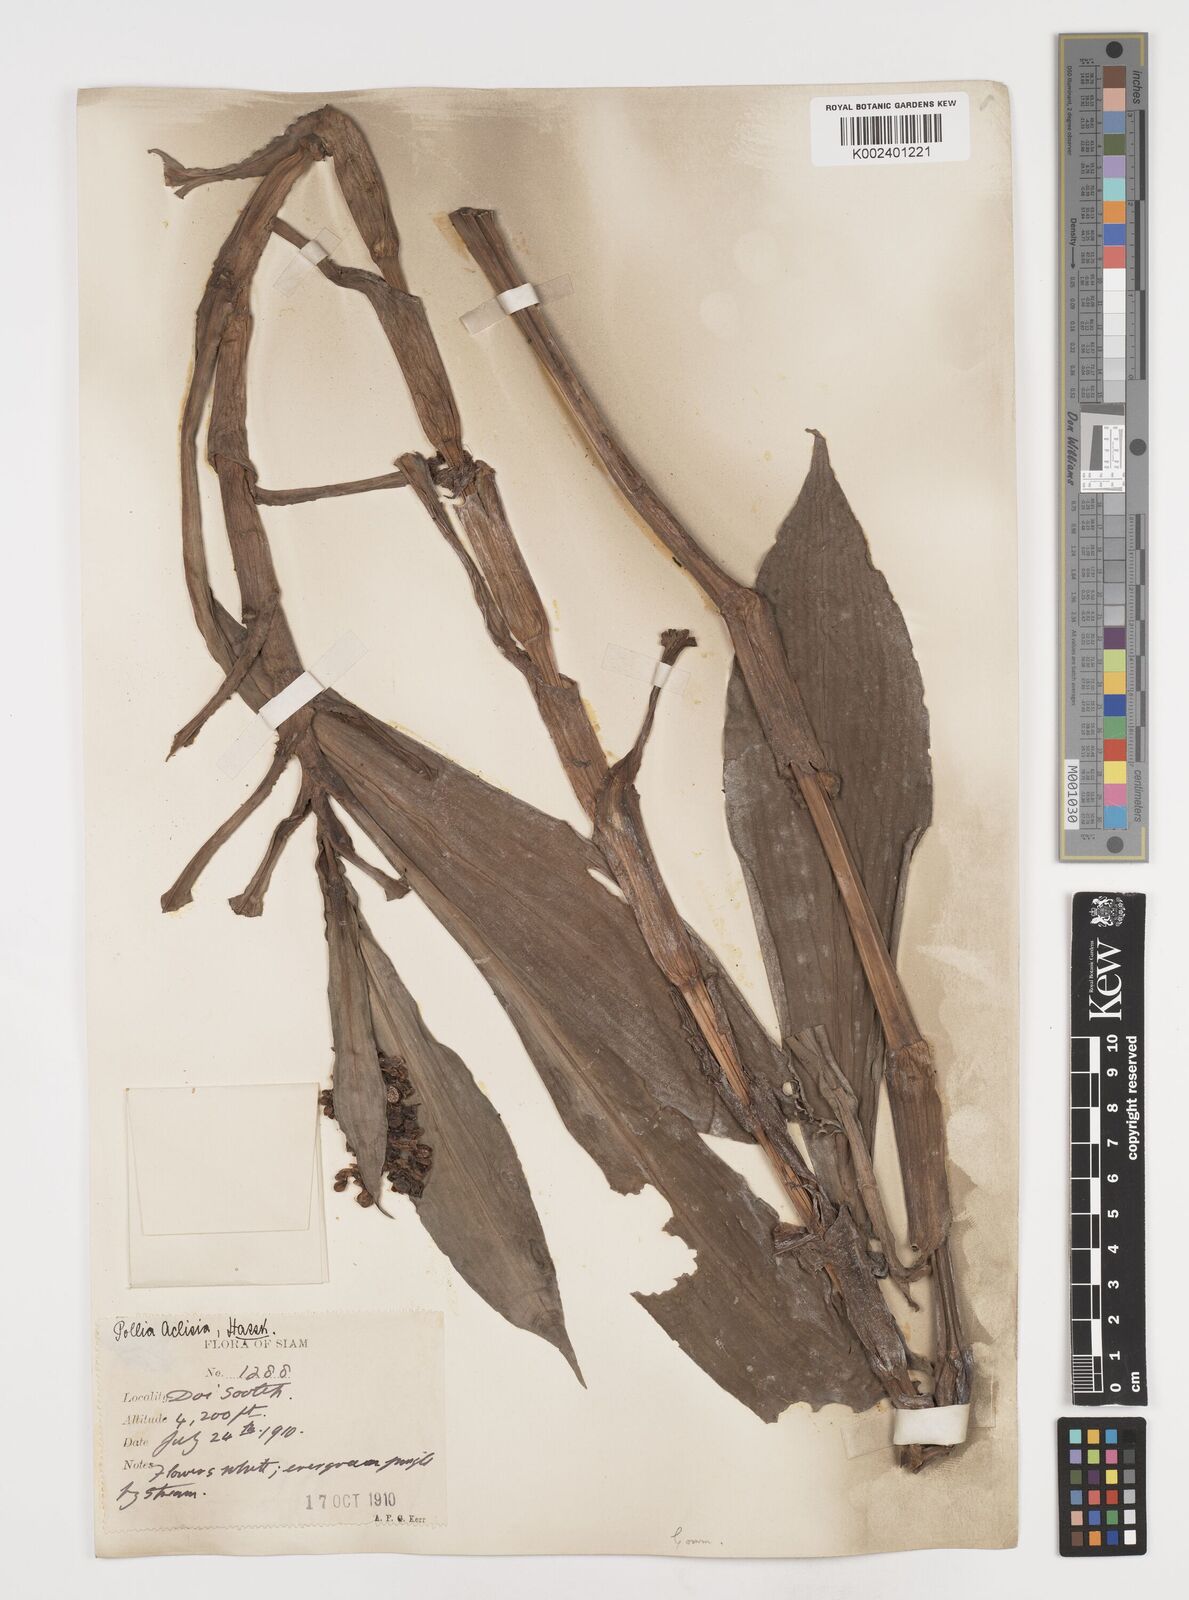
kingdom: Plantae
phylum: Tracheophyta
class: Liliopsida
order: Commelinales
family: Commelinaceae
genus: Pollia
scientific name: Pollia hasskarlii
